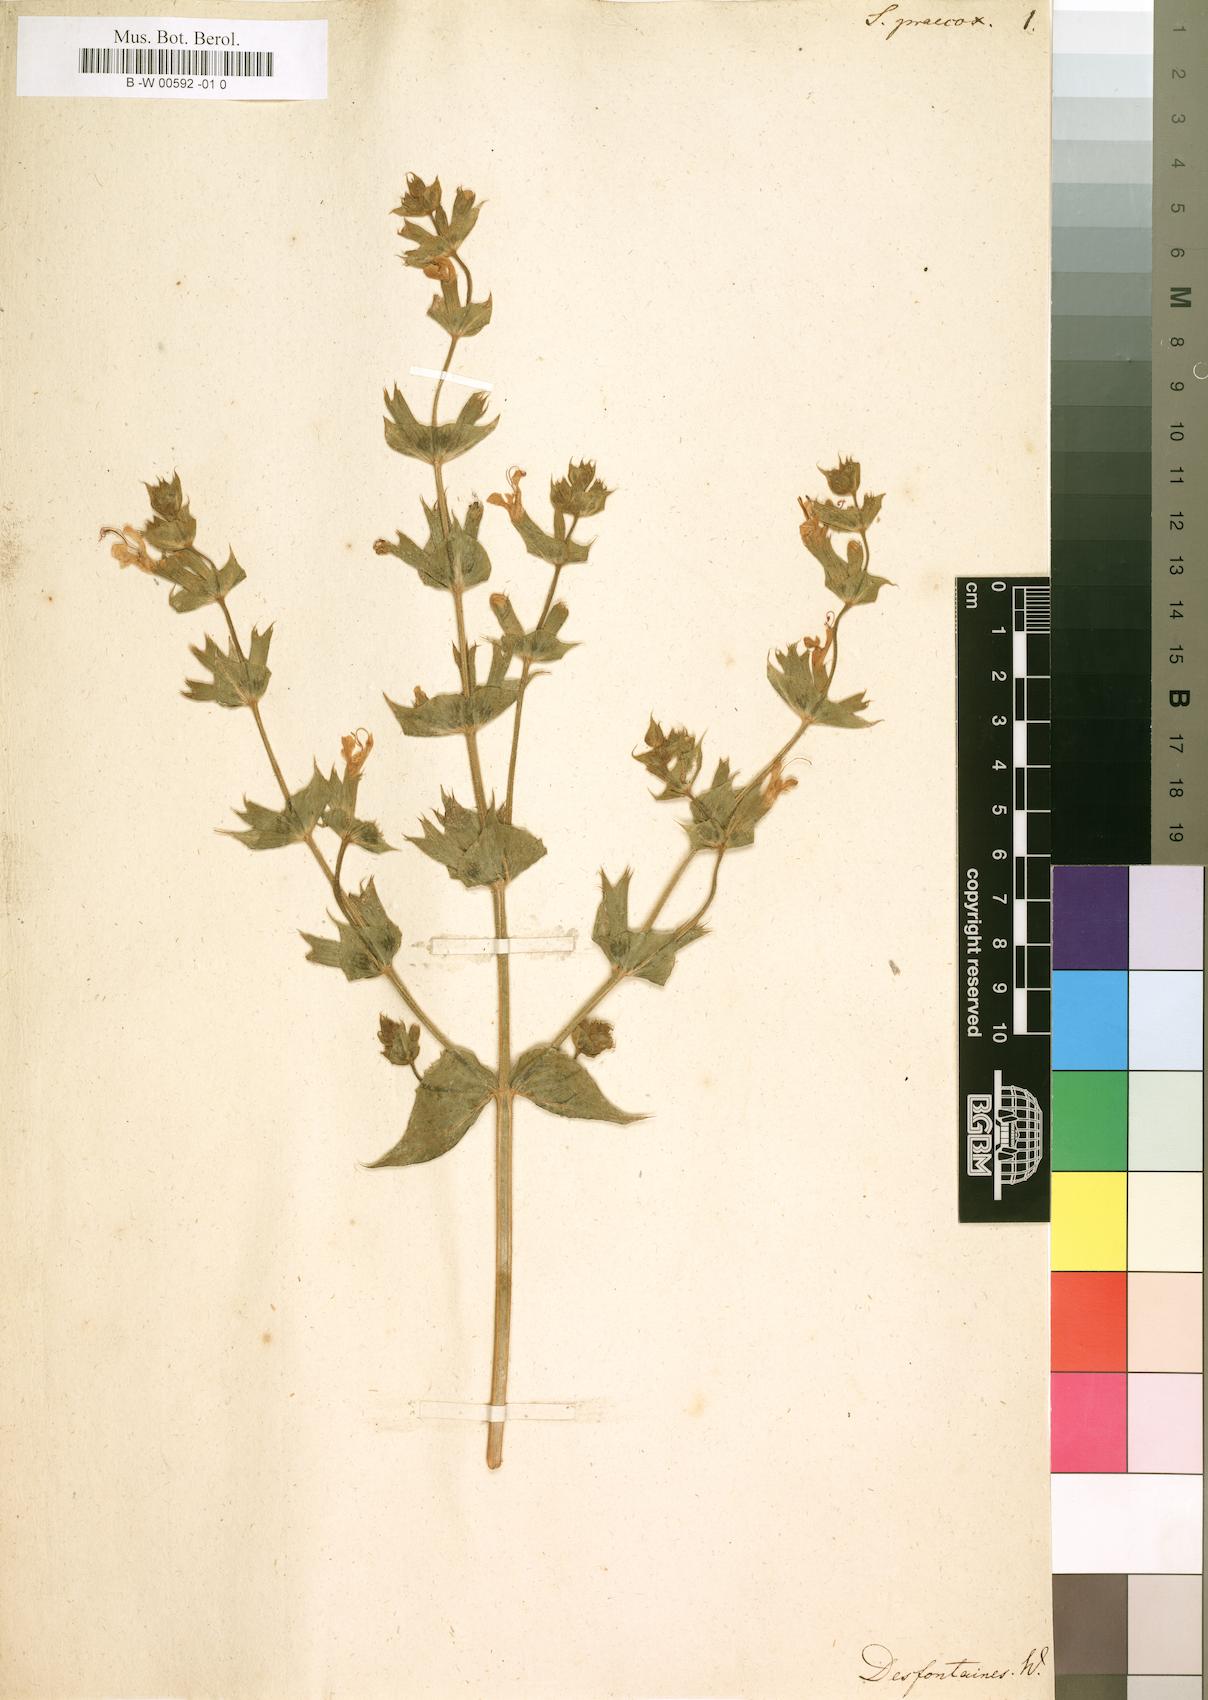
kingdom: Plantae
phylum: Tracheophyta
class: Magnoliopsida
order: Lamiales
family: Lamiaceae
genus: Salvia
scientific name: Salvia
